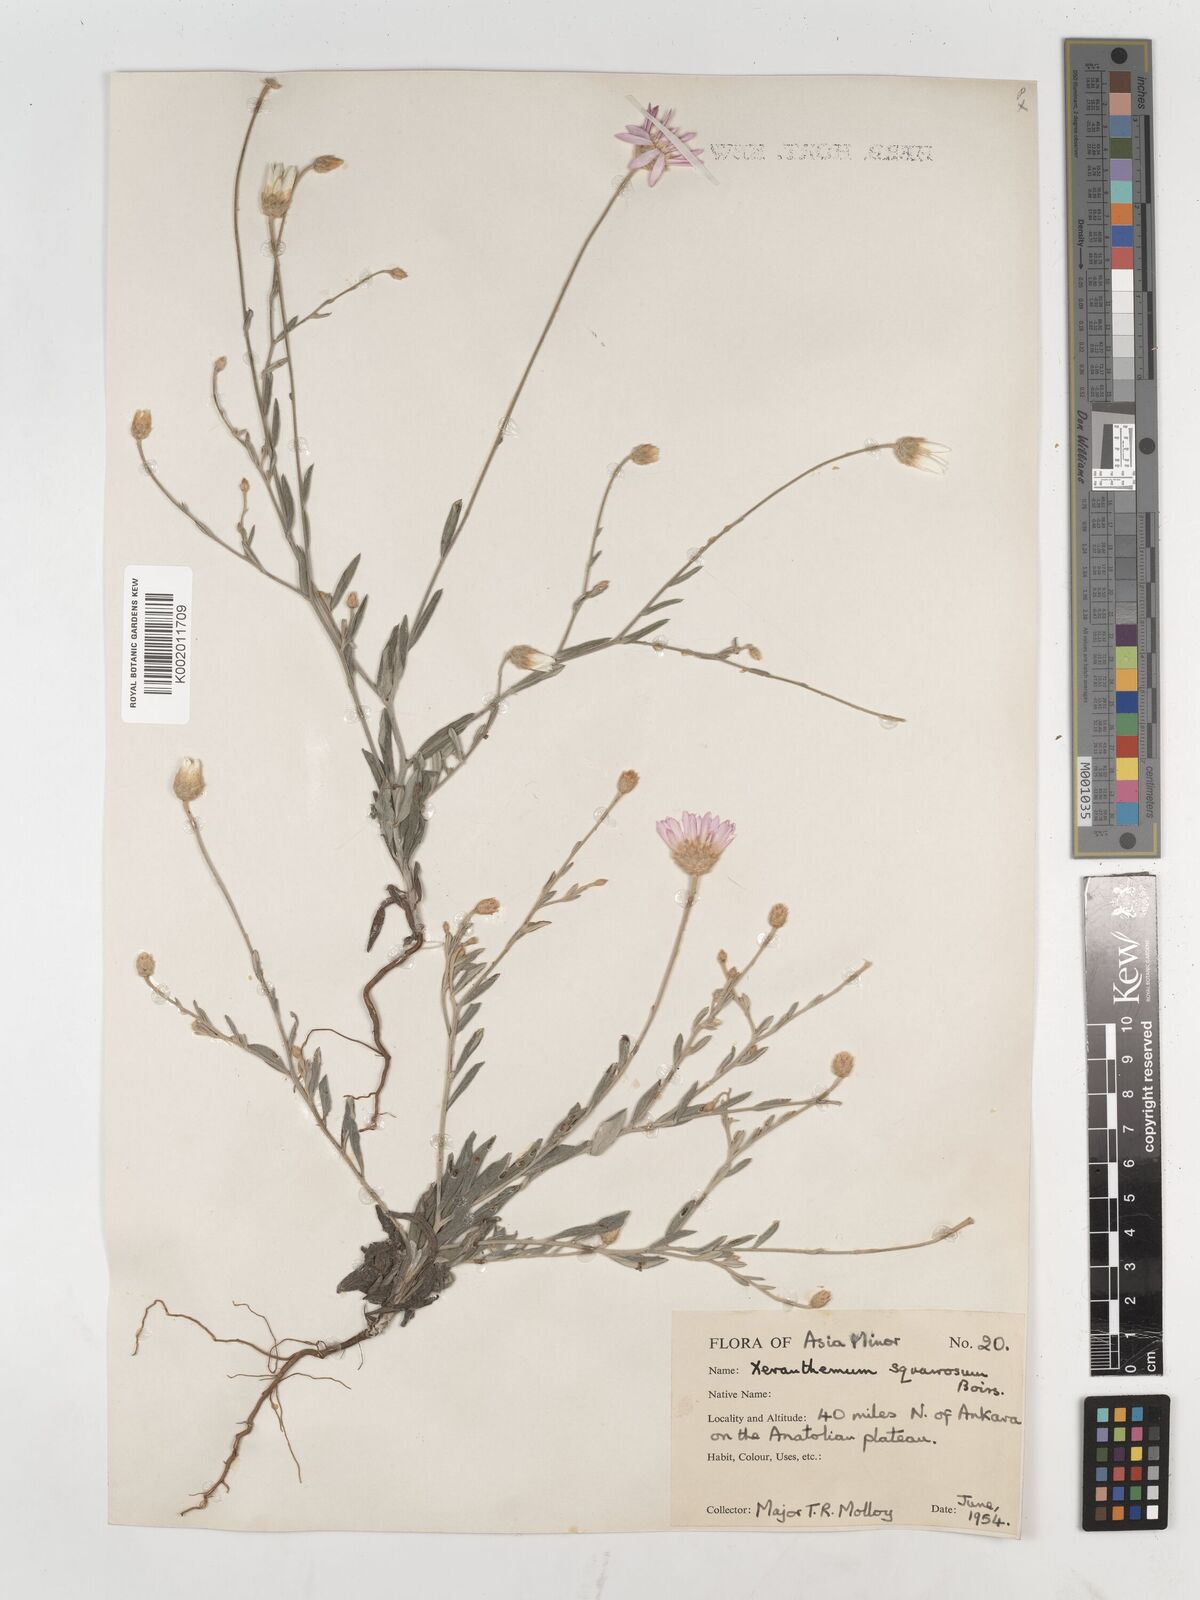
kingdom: Plantae
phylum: Tracheophyta
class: Magnoliopsida
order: Asterales
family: Asteraceae
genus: Xeranthemum
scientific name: Xeranthemum squarrosum
